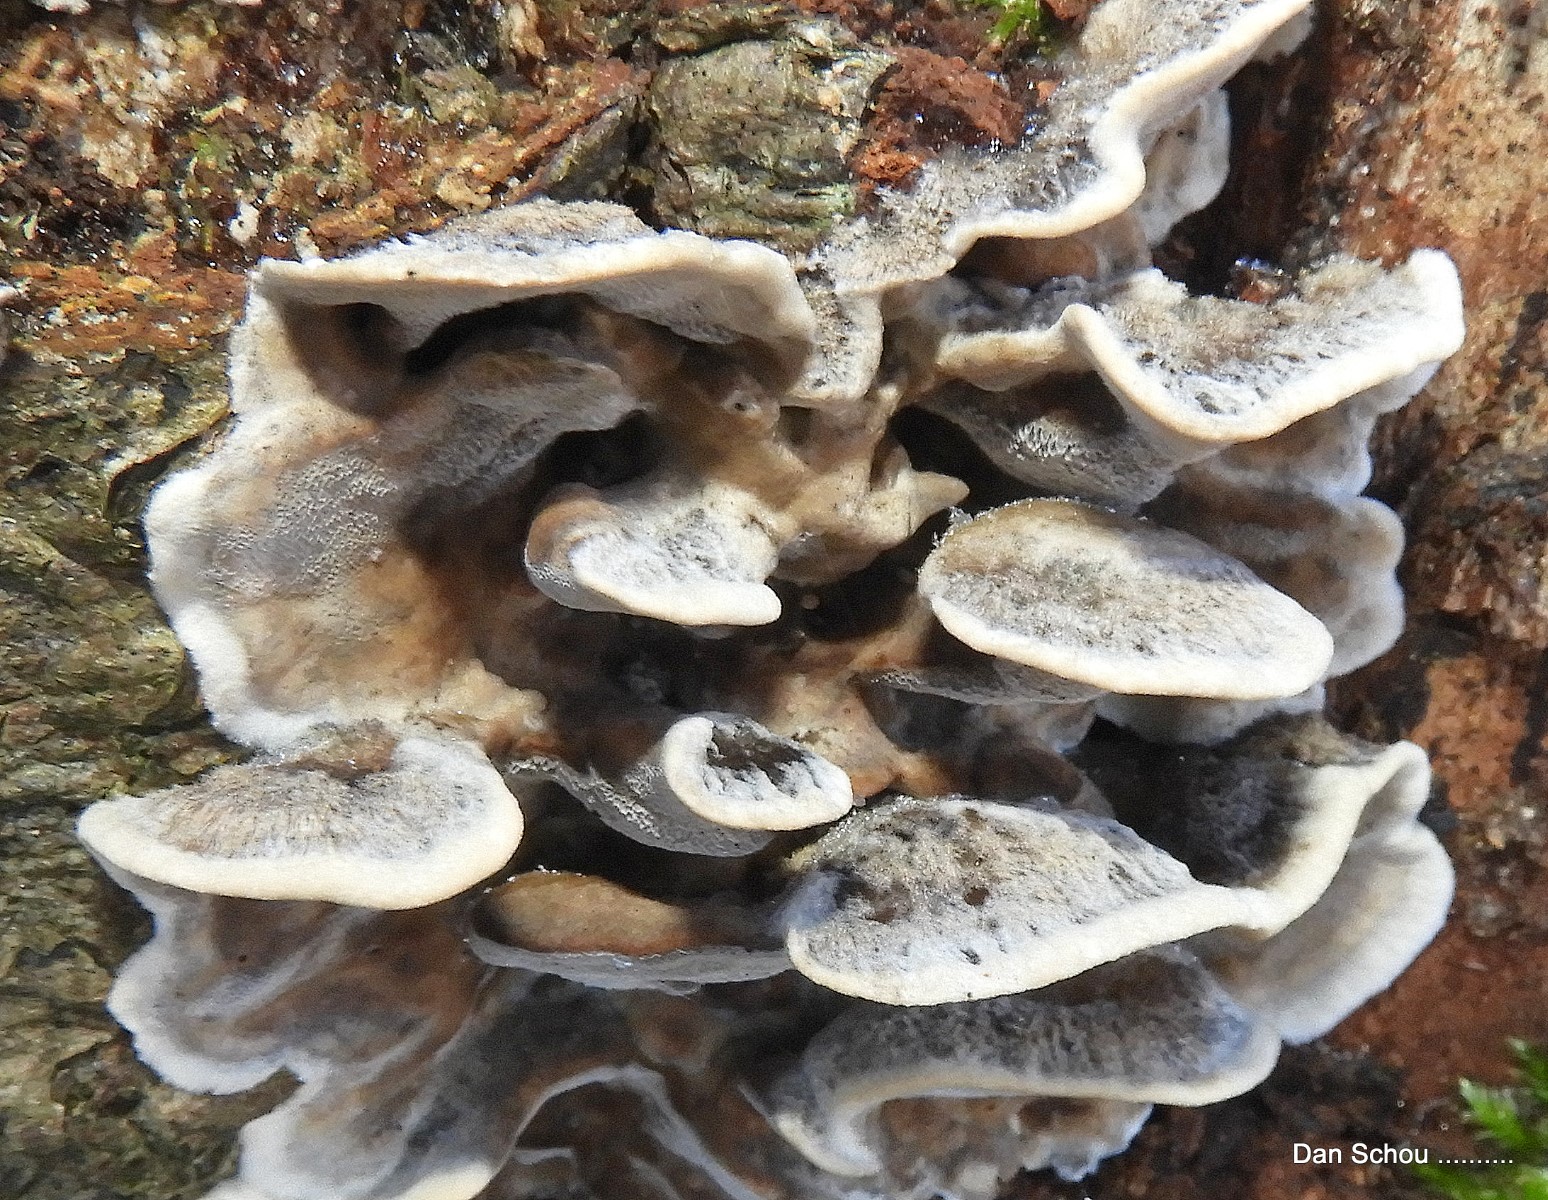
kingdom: Fungi
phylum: Basidiomycota
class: Agaricomycetes
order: Polyporales
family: Phanerochaetaceae
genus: Bjerkandera
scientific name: Bjerkandera adusta
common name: sveden sodporesvamp
